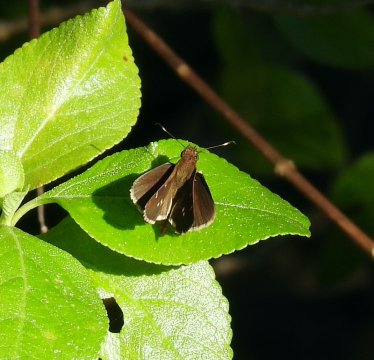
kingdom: Animalia
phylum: Arthropoda
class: Insecta
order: Lepidoptera
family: Hesperiidae
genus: Lerema
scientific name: Lerema ancillaris
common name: Liris Skipper
